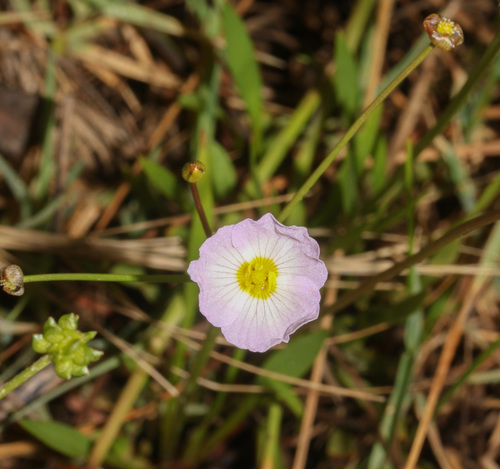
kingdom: Plantae
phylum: Tracheophyta
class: Liliopsida
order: Alismatales
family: Alismataceae
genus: Baldellia
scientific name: Baldellia repens
